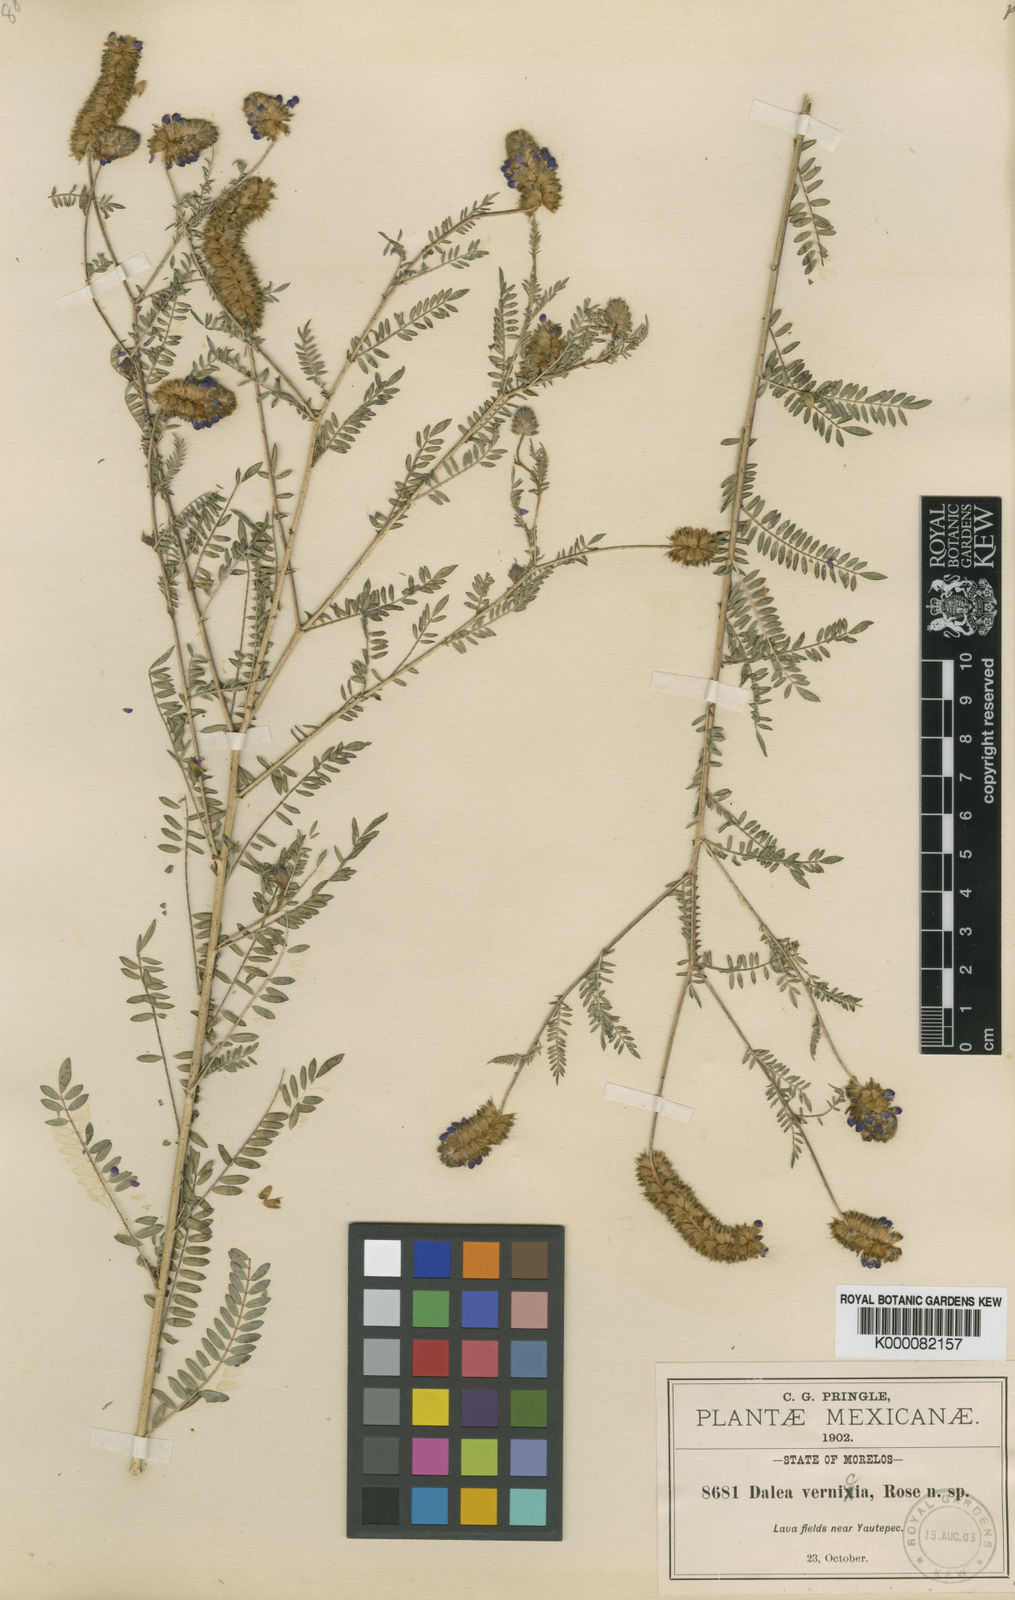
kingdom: Plantae
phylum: Tracheophyta
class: Magnoliopsida
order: Fabales
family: Fabaceae
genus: Dalea
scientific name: Dalea foliolosa
